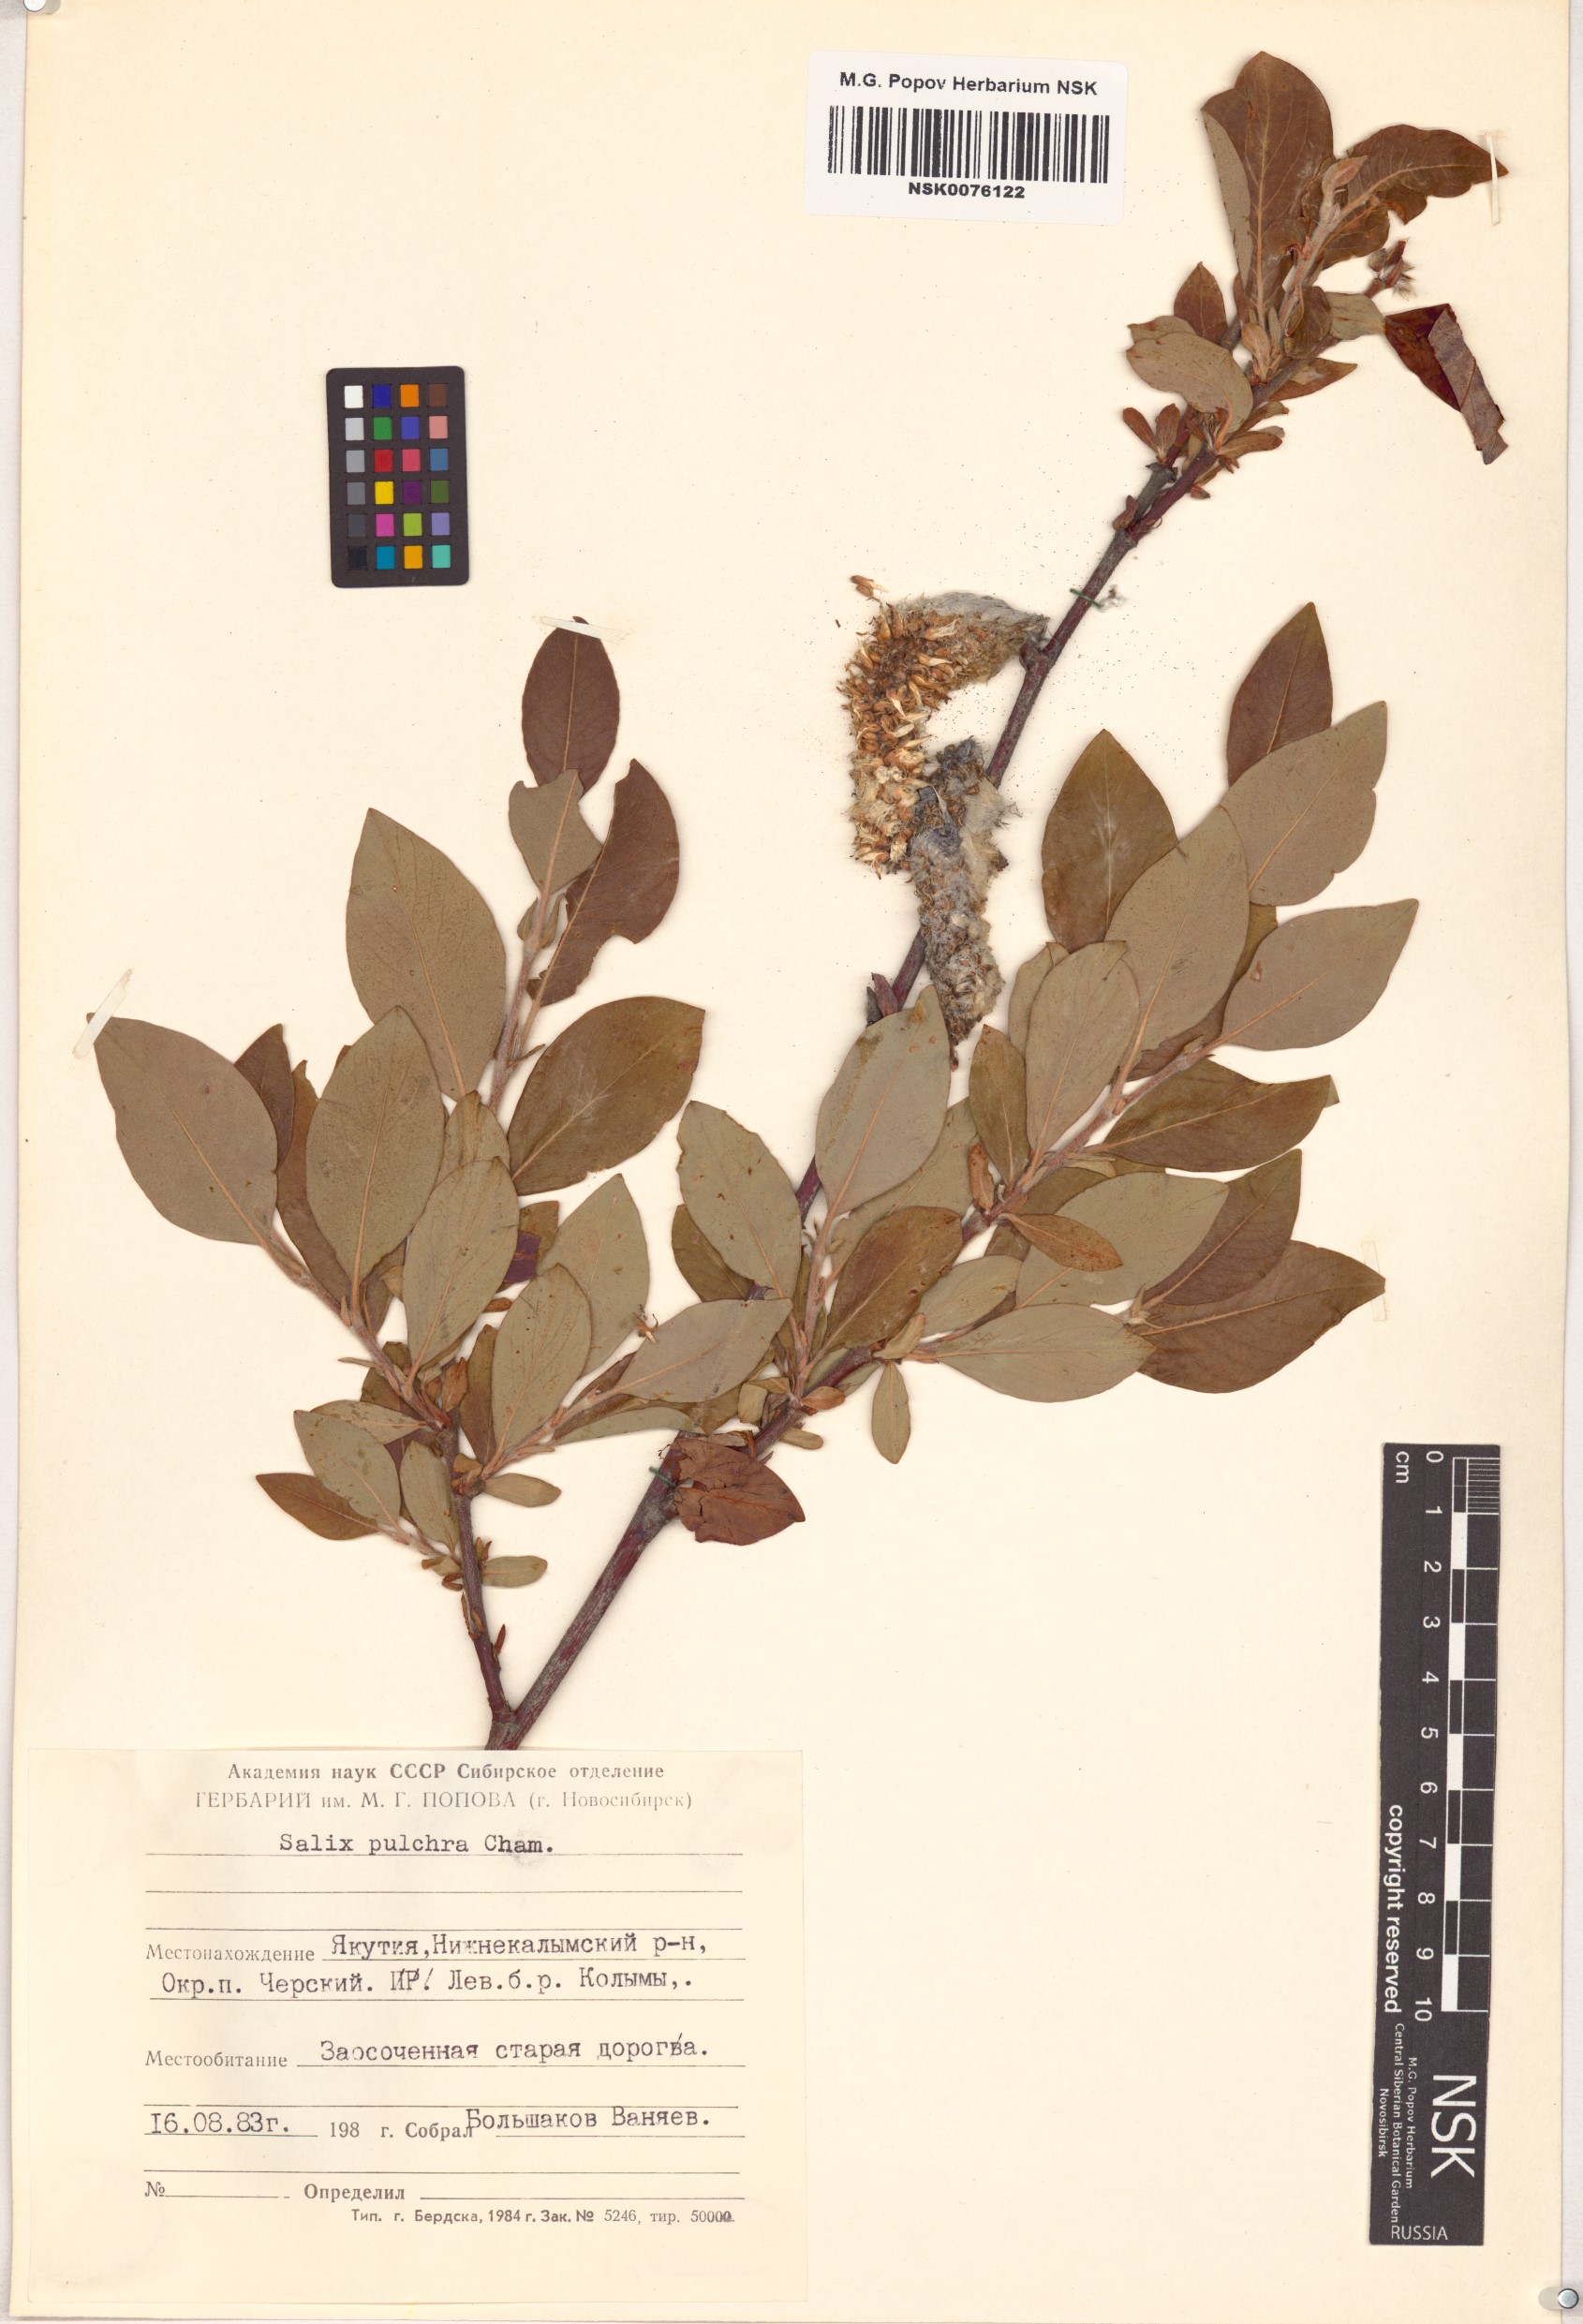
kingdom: Plantae
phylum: Tracheophyta
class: Magnoliopsida
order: Malpighiales
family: Salicaceae
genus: Salix
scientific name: Salix pulchra
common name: Diamond-leaved willow
